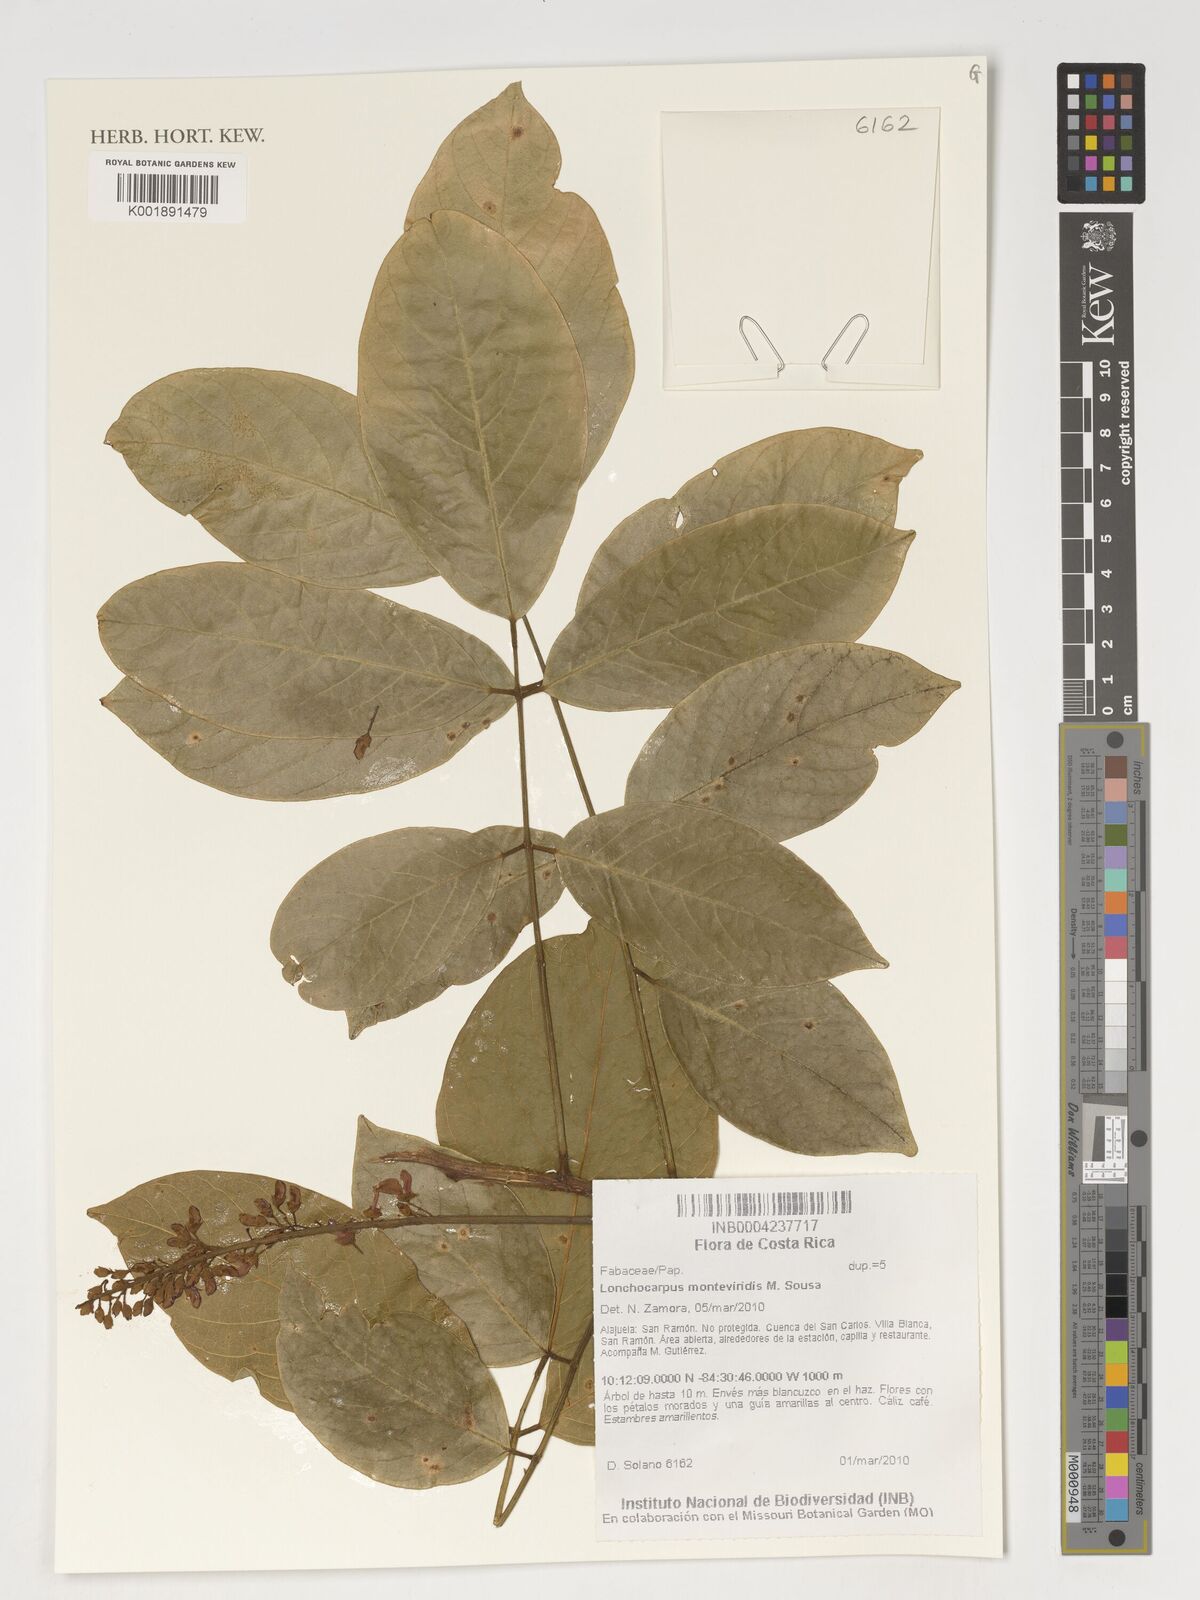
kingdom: Plantae
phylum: Tracheophyta
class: Magnoliopsida
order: Fabales
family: Fabaceae
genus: Lonchocarpus
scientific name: Lonchocarpus monteviridis
